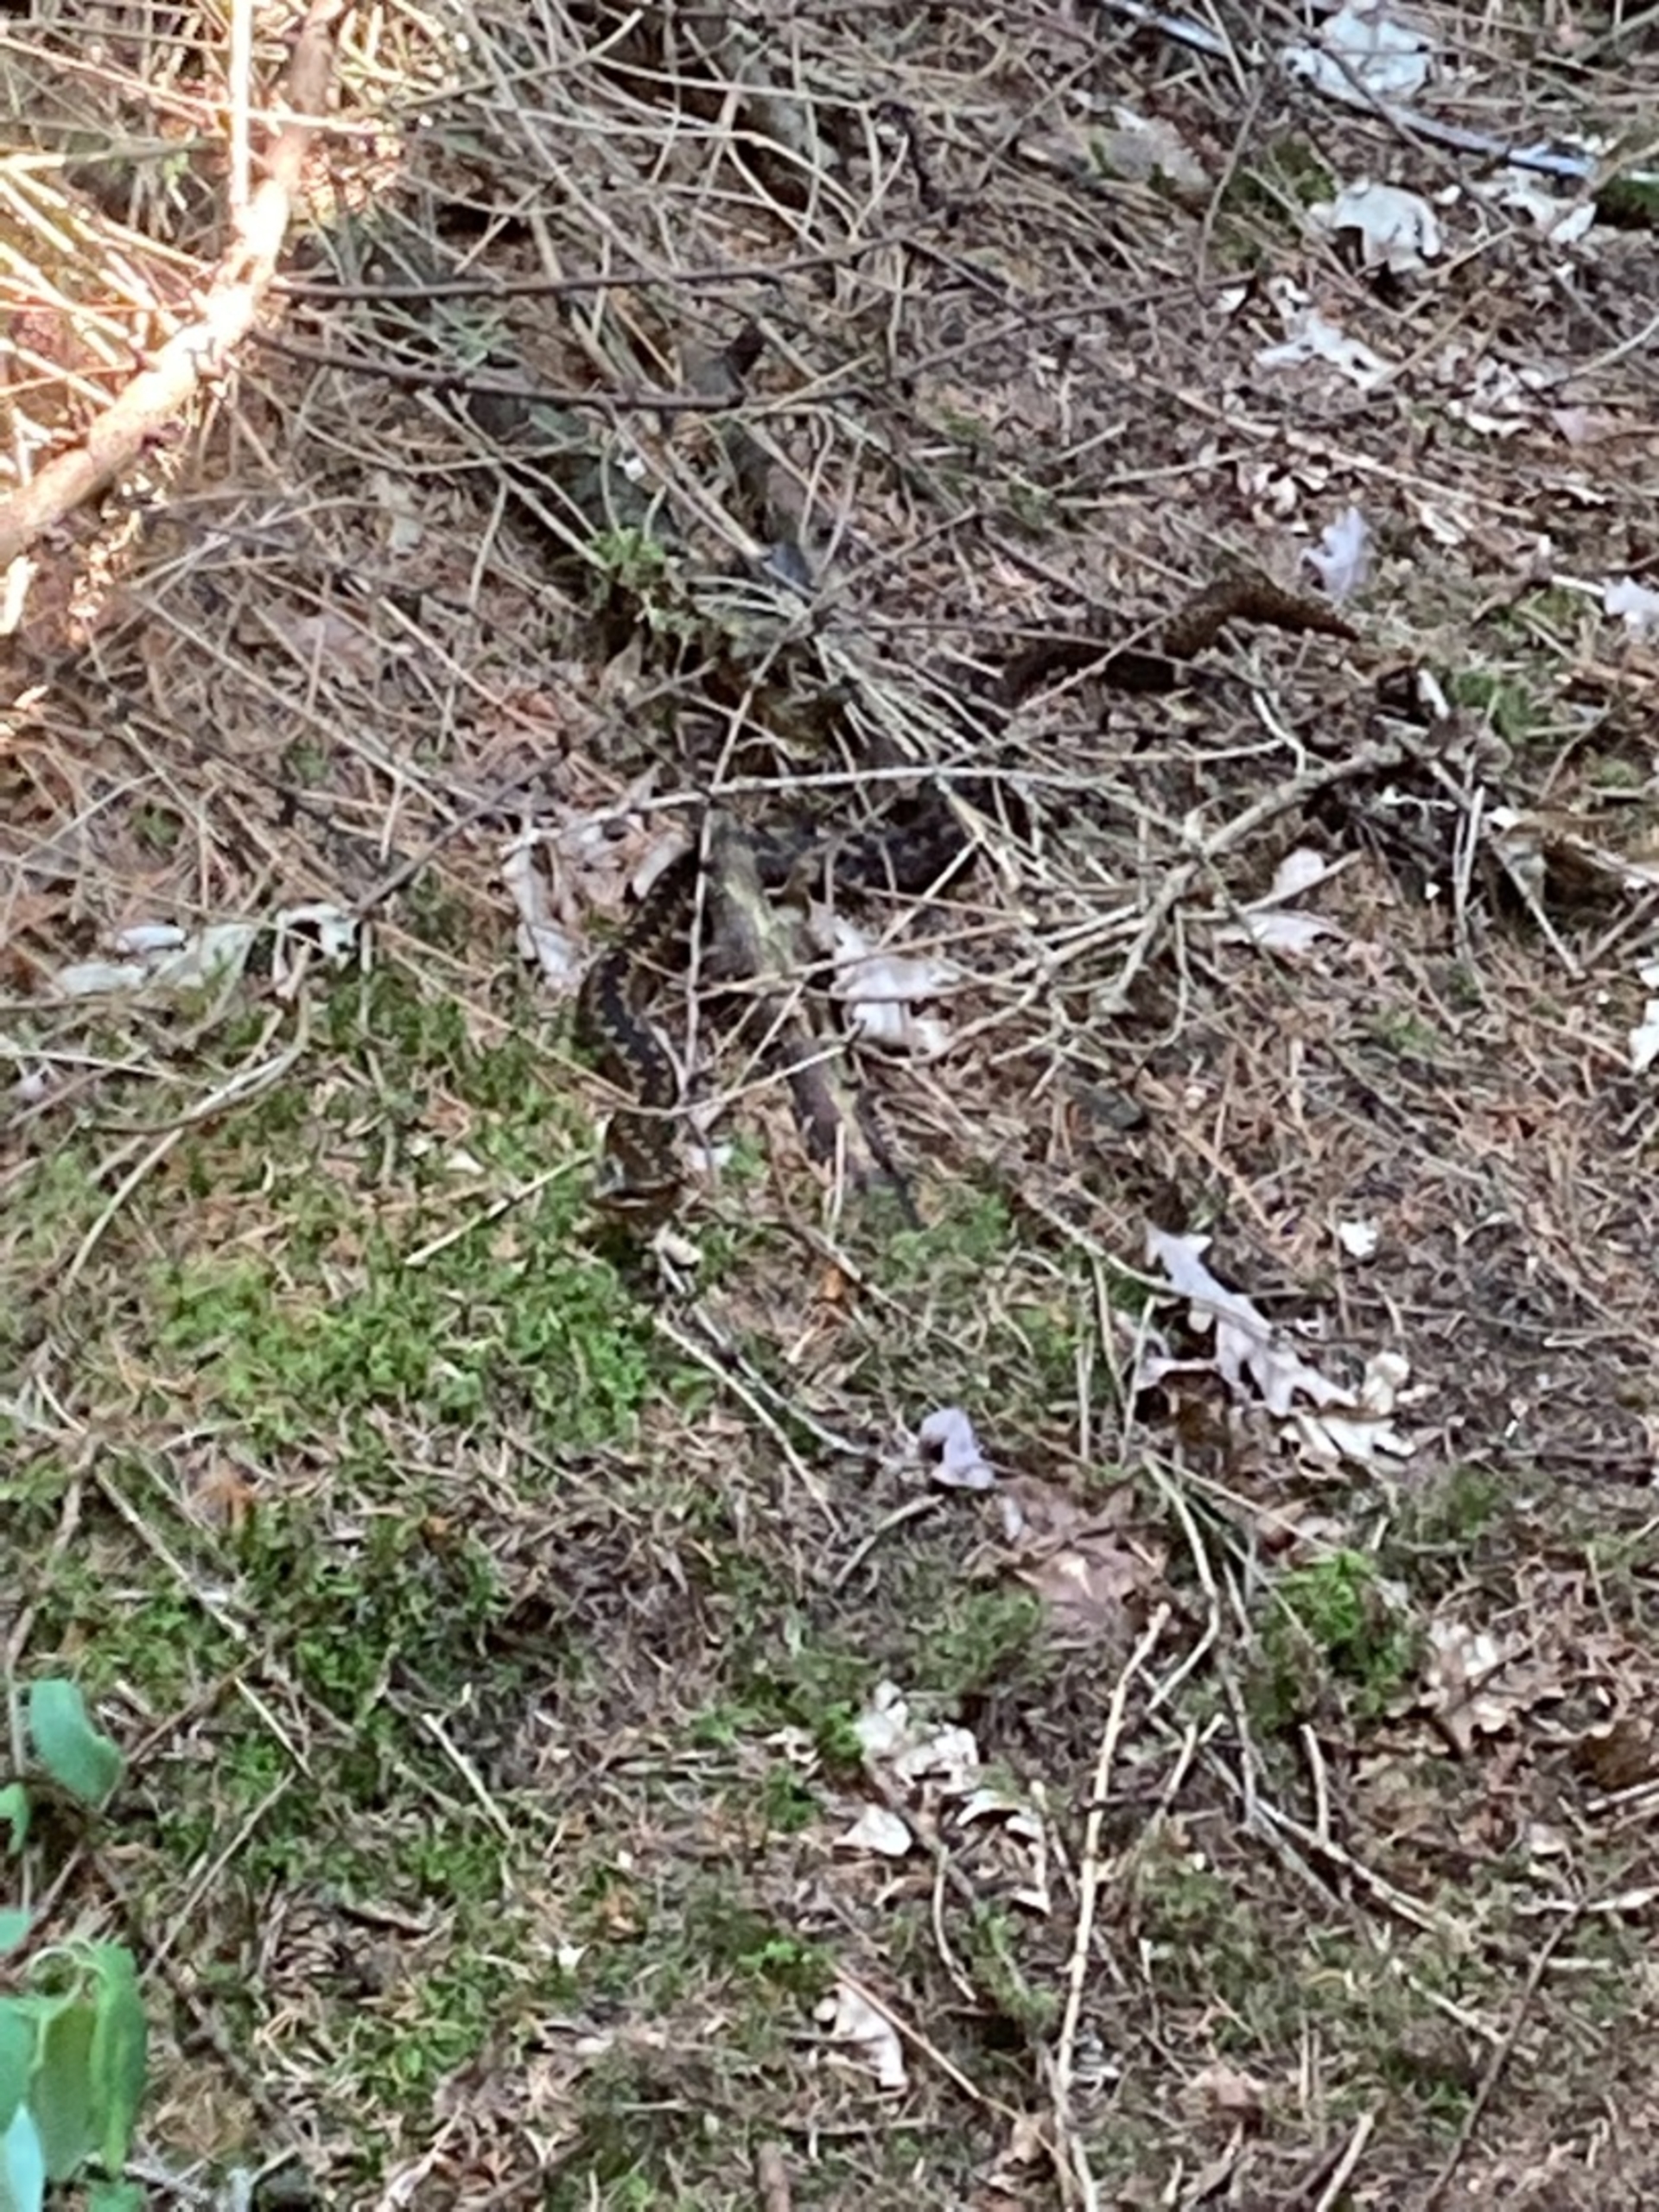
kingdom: Animalia
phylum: Chordata
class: Squamata
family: Viperidae
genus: Vipera
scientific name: Vipera berus
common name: Hugorm
